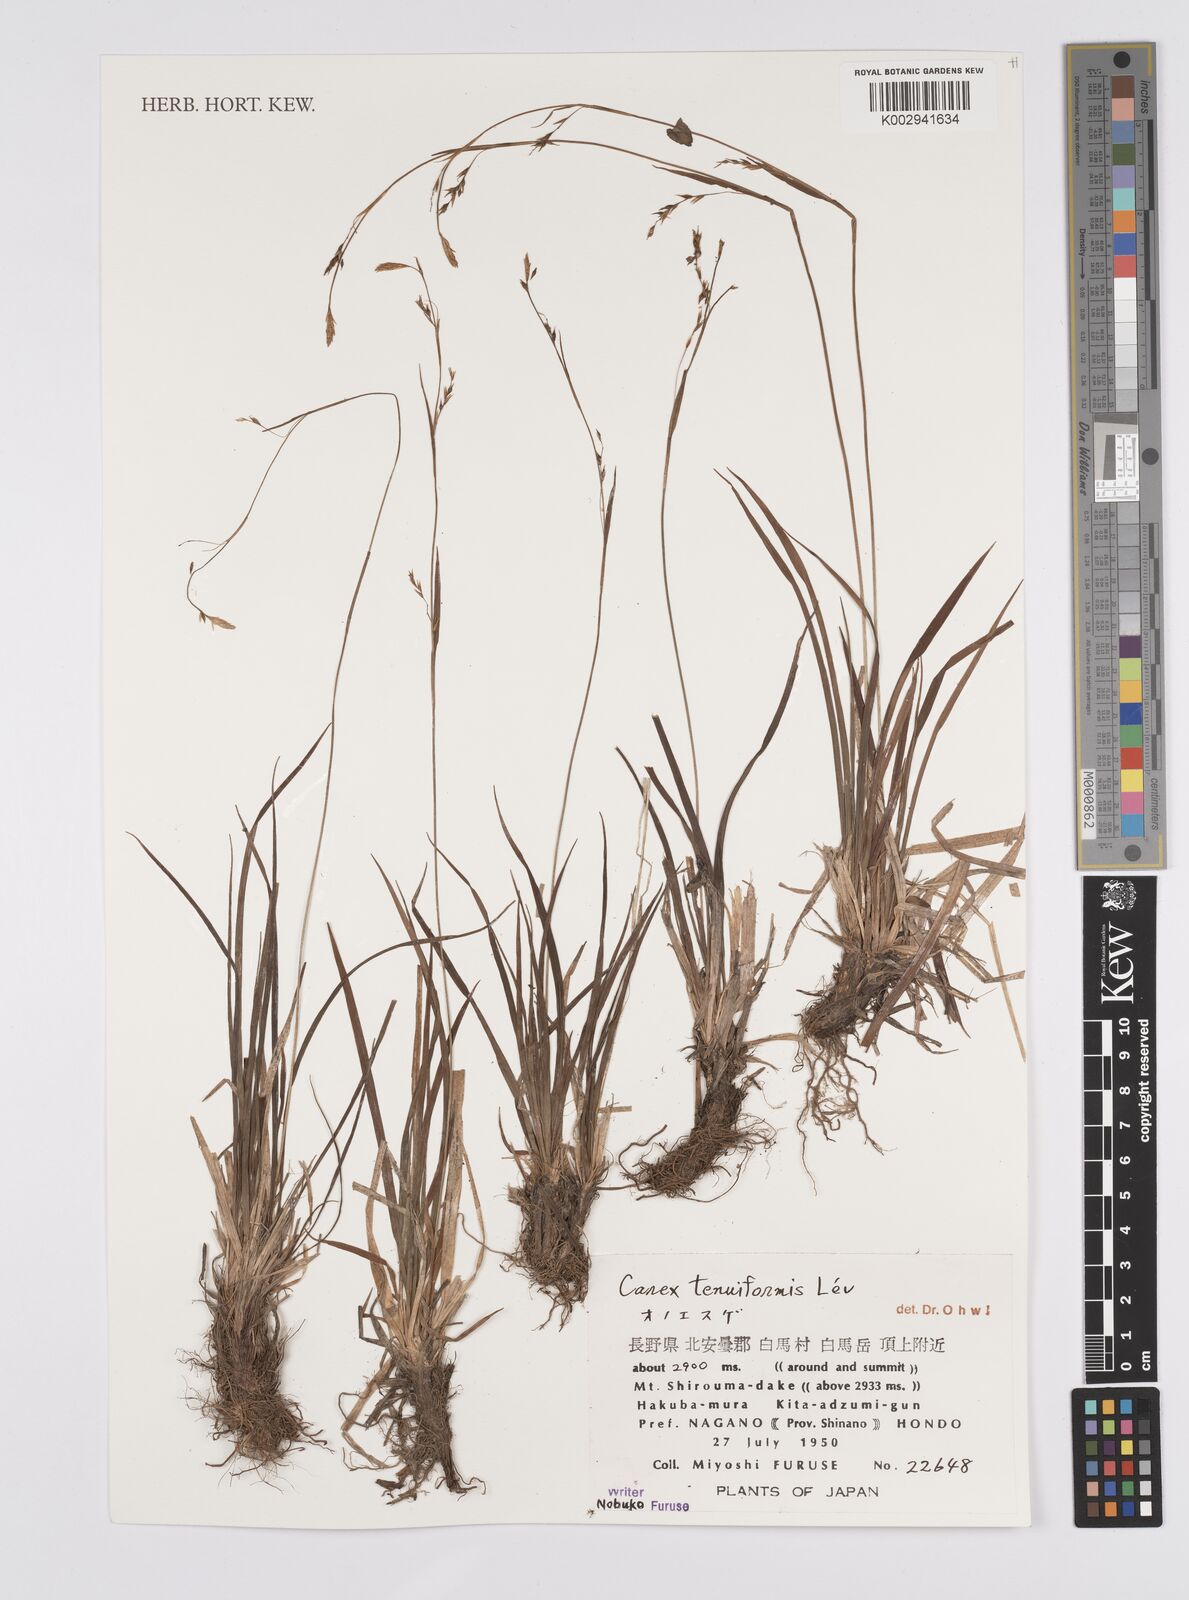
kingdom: Plantae
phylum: Tracheophyta
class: Liliopsida
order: Poales
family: Cyperaceae
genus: Carex
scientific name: Carex tenuiformis
